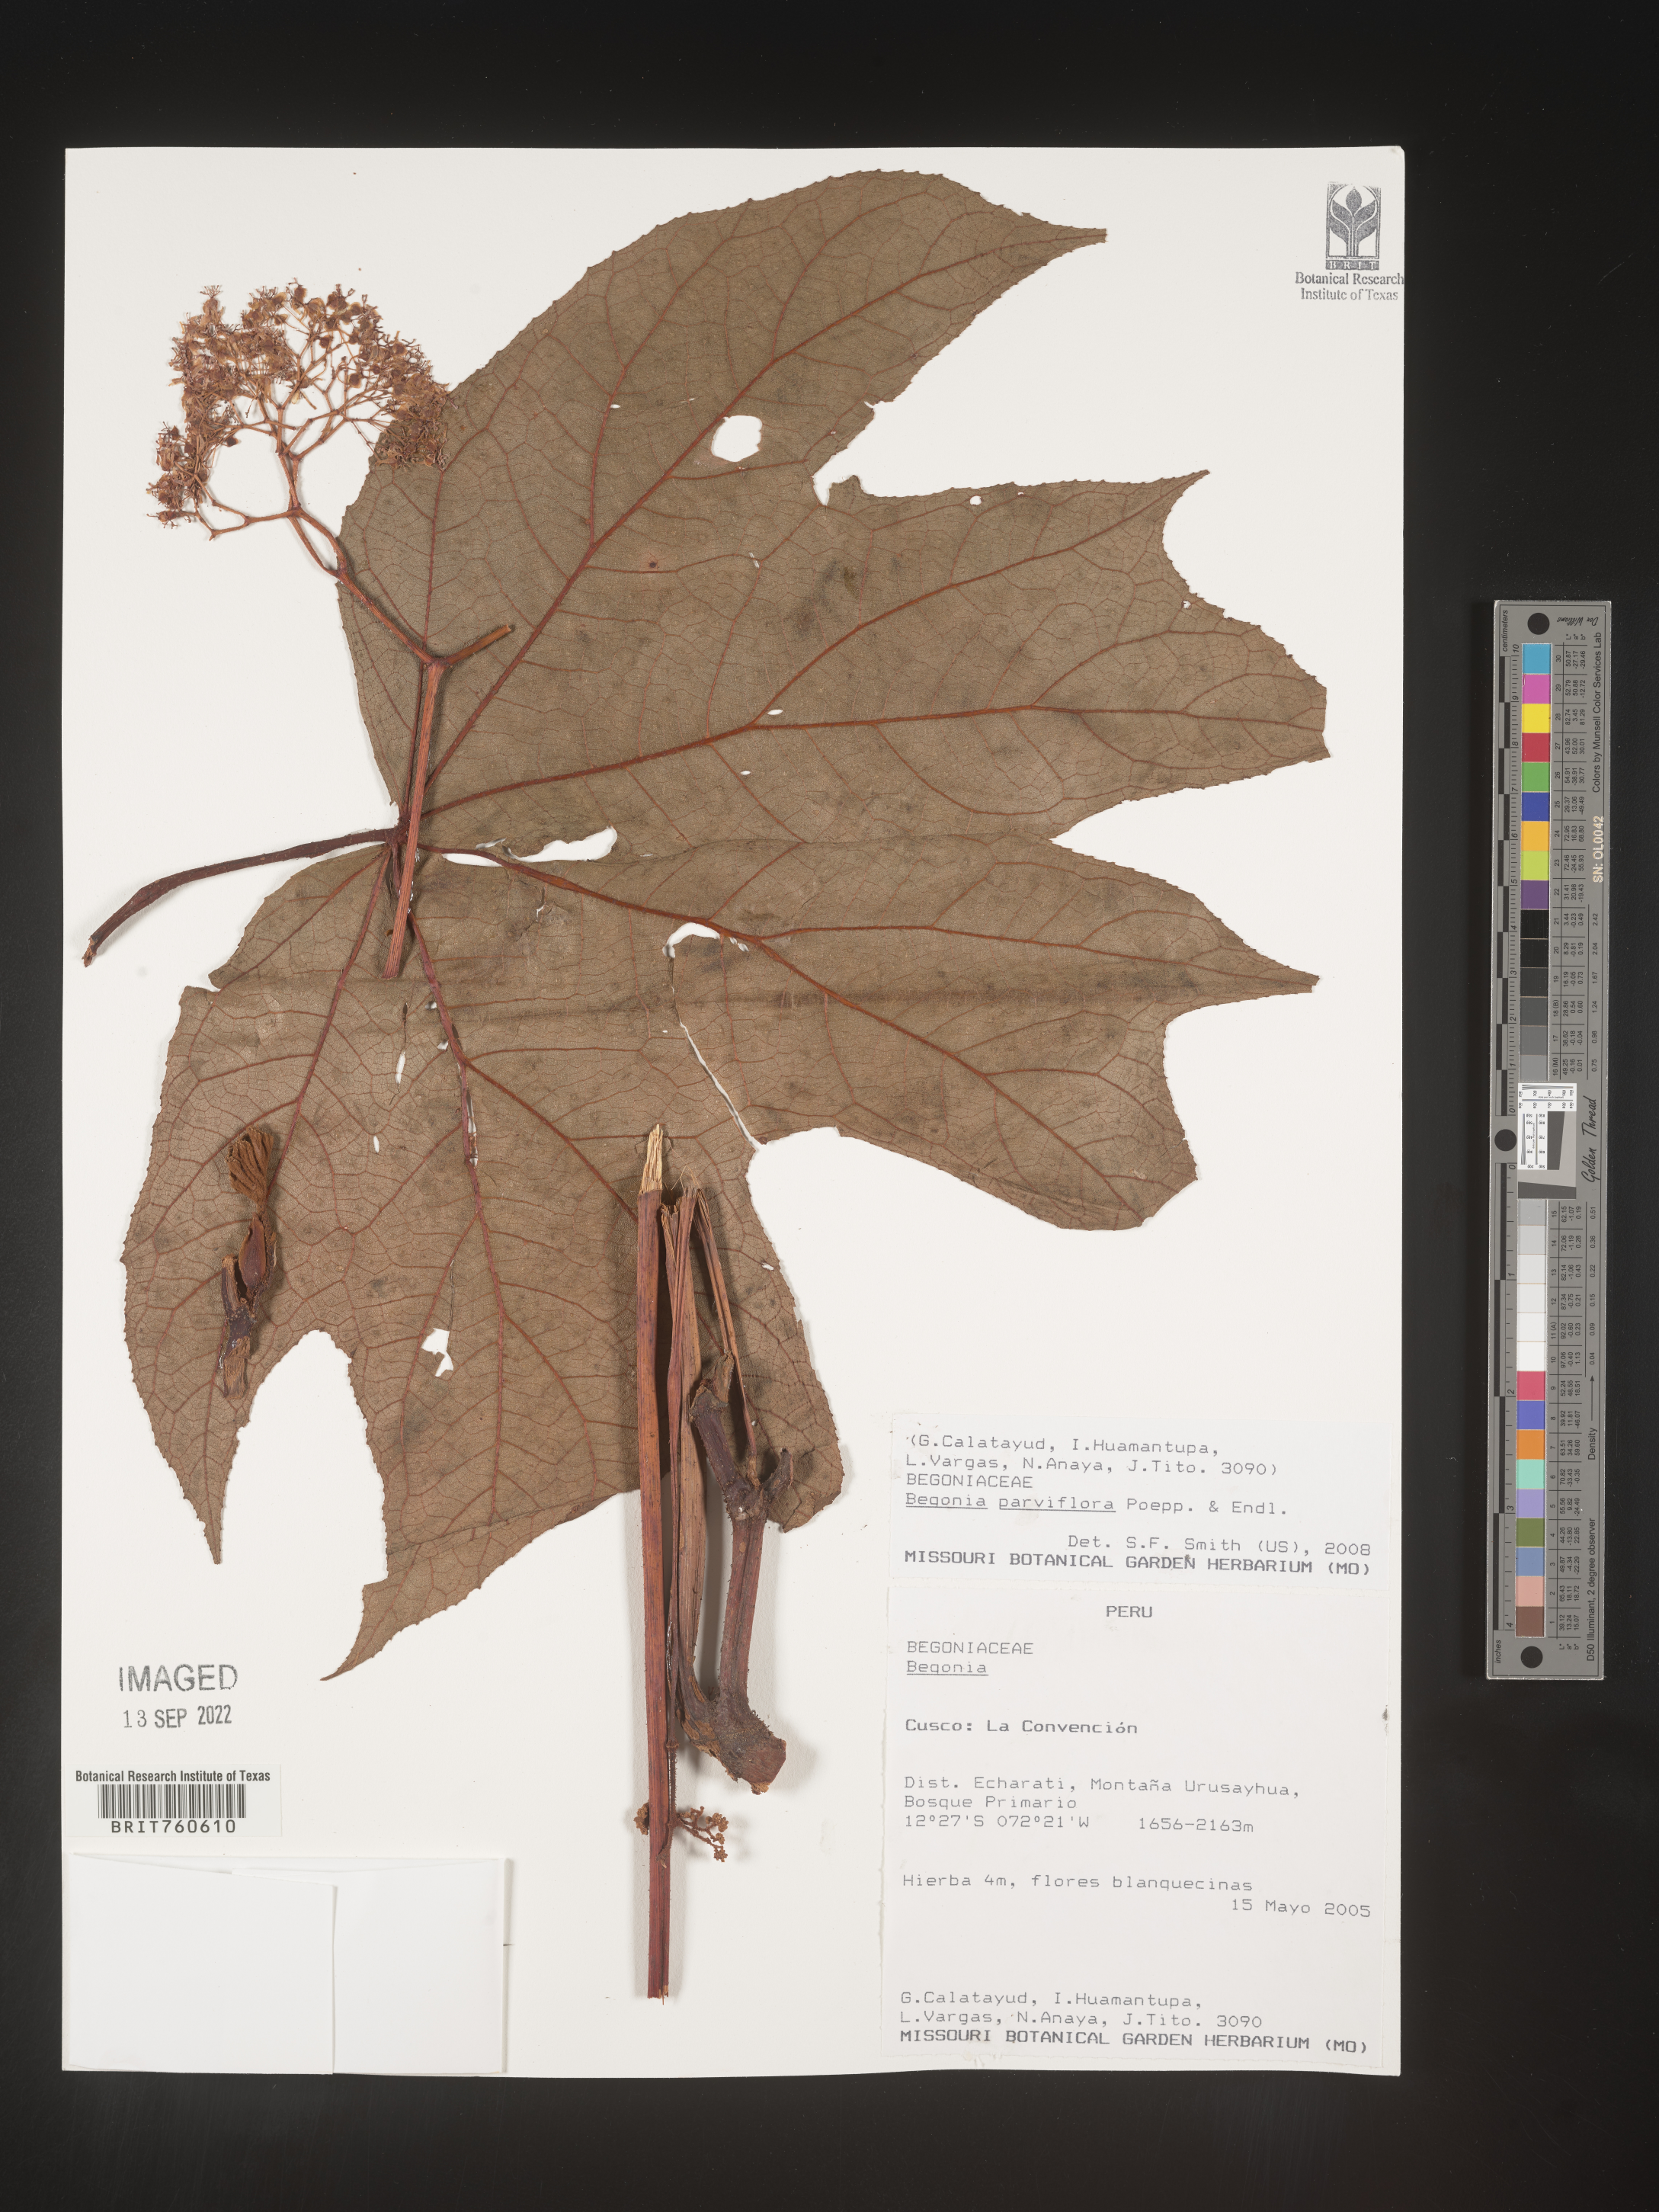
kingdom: Plantae
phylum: Tracheophyta
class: Magnoliopsida
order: Cucurbitales
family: Begoniaceae
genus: Begonia
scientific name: Begonia
